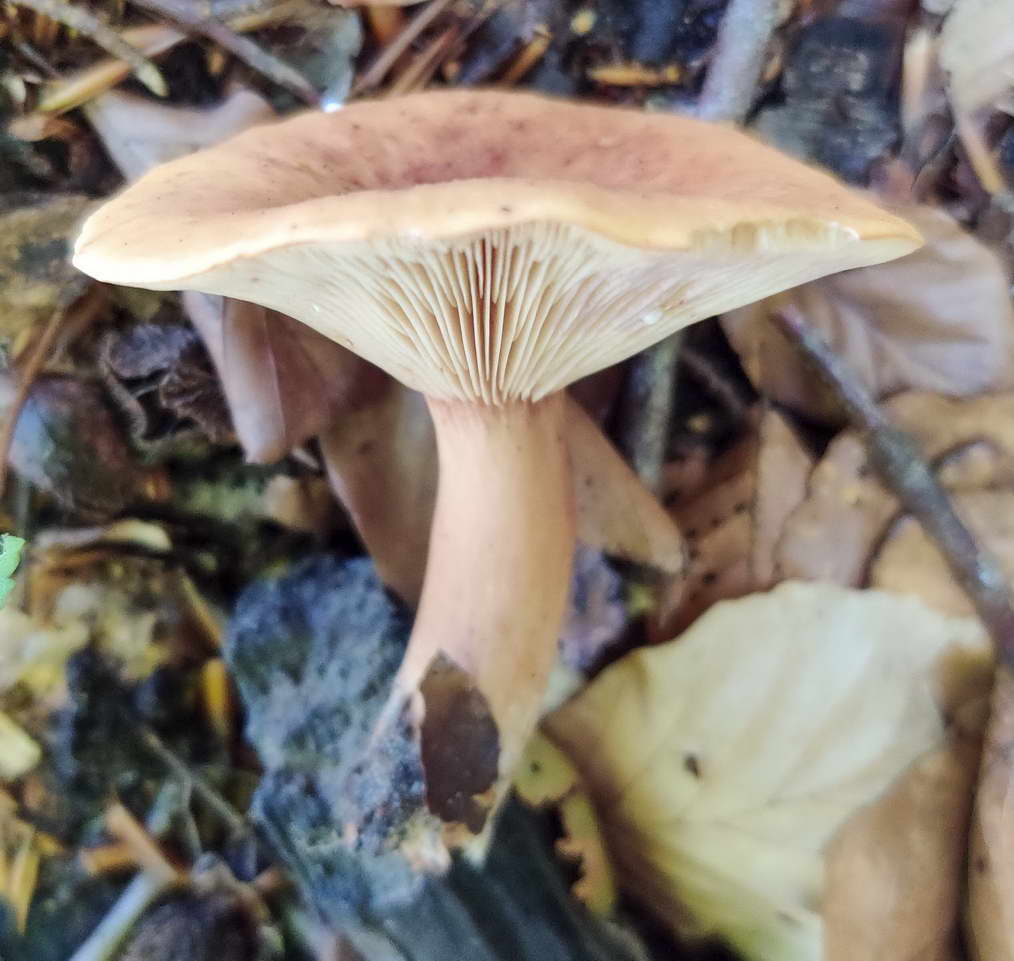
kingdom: Fungi
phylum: Basidiomycota
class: Agaricomycetes
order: Russulales
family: Russulaceae
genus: Lactarius
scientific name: Lactarius rubrocinctus
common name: halsbånd-mælkehat
